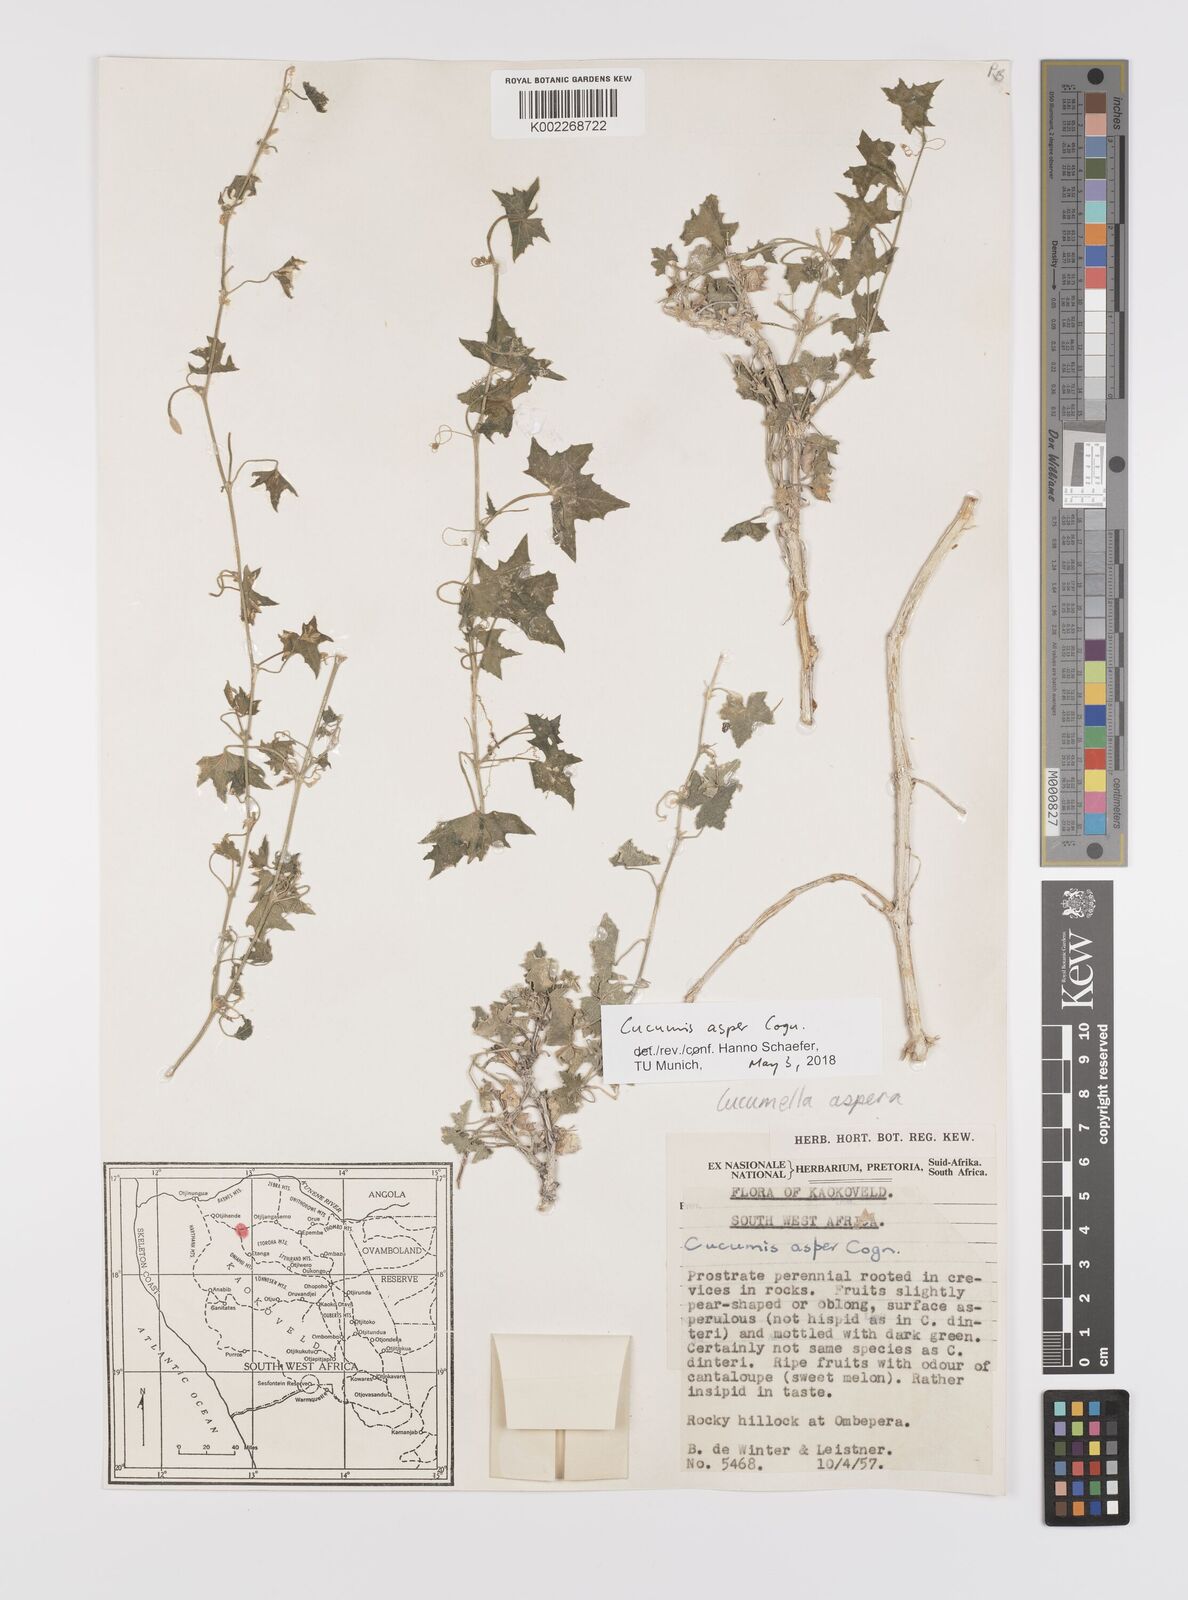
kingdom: Plantae
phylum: Tracheophyta
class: Magnoliopsida
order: Cucurbitales
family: Cucurbitaceae
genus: Cucumis
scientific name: Cucumis asper
